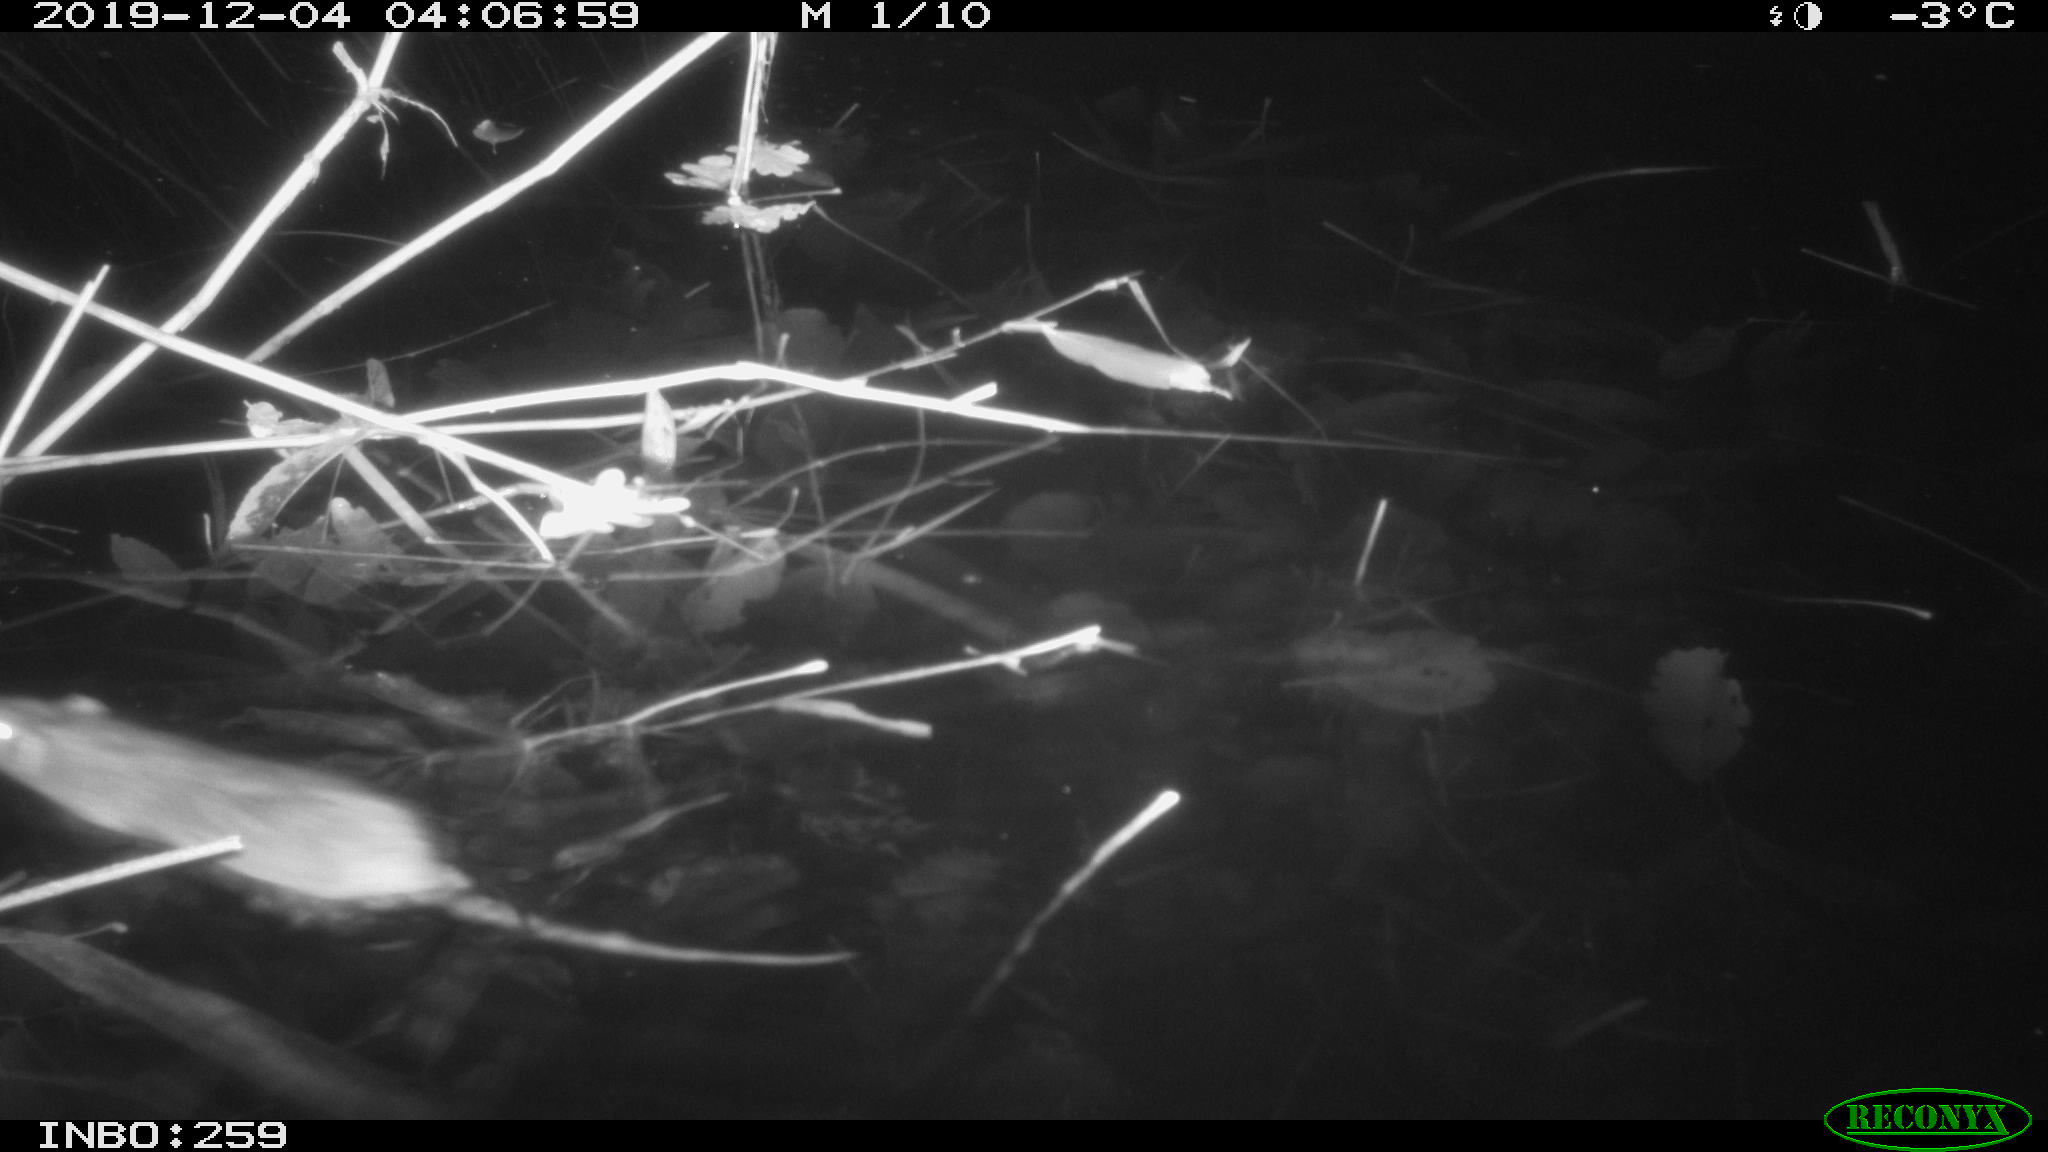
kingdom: Animalia
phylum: Chordata
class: Mammalia
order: Rodentia
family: Muridae
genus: Rattus
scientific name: Rattus norvegicus
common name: Brown rat
